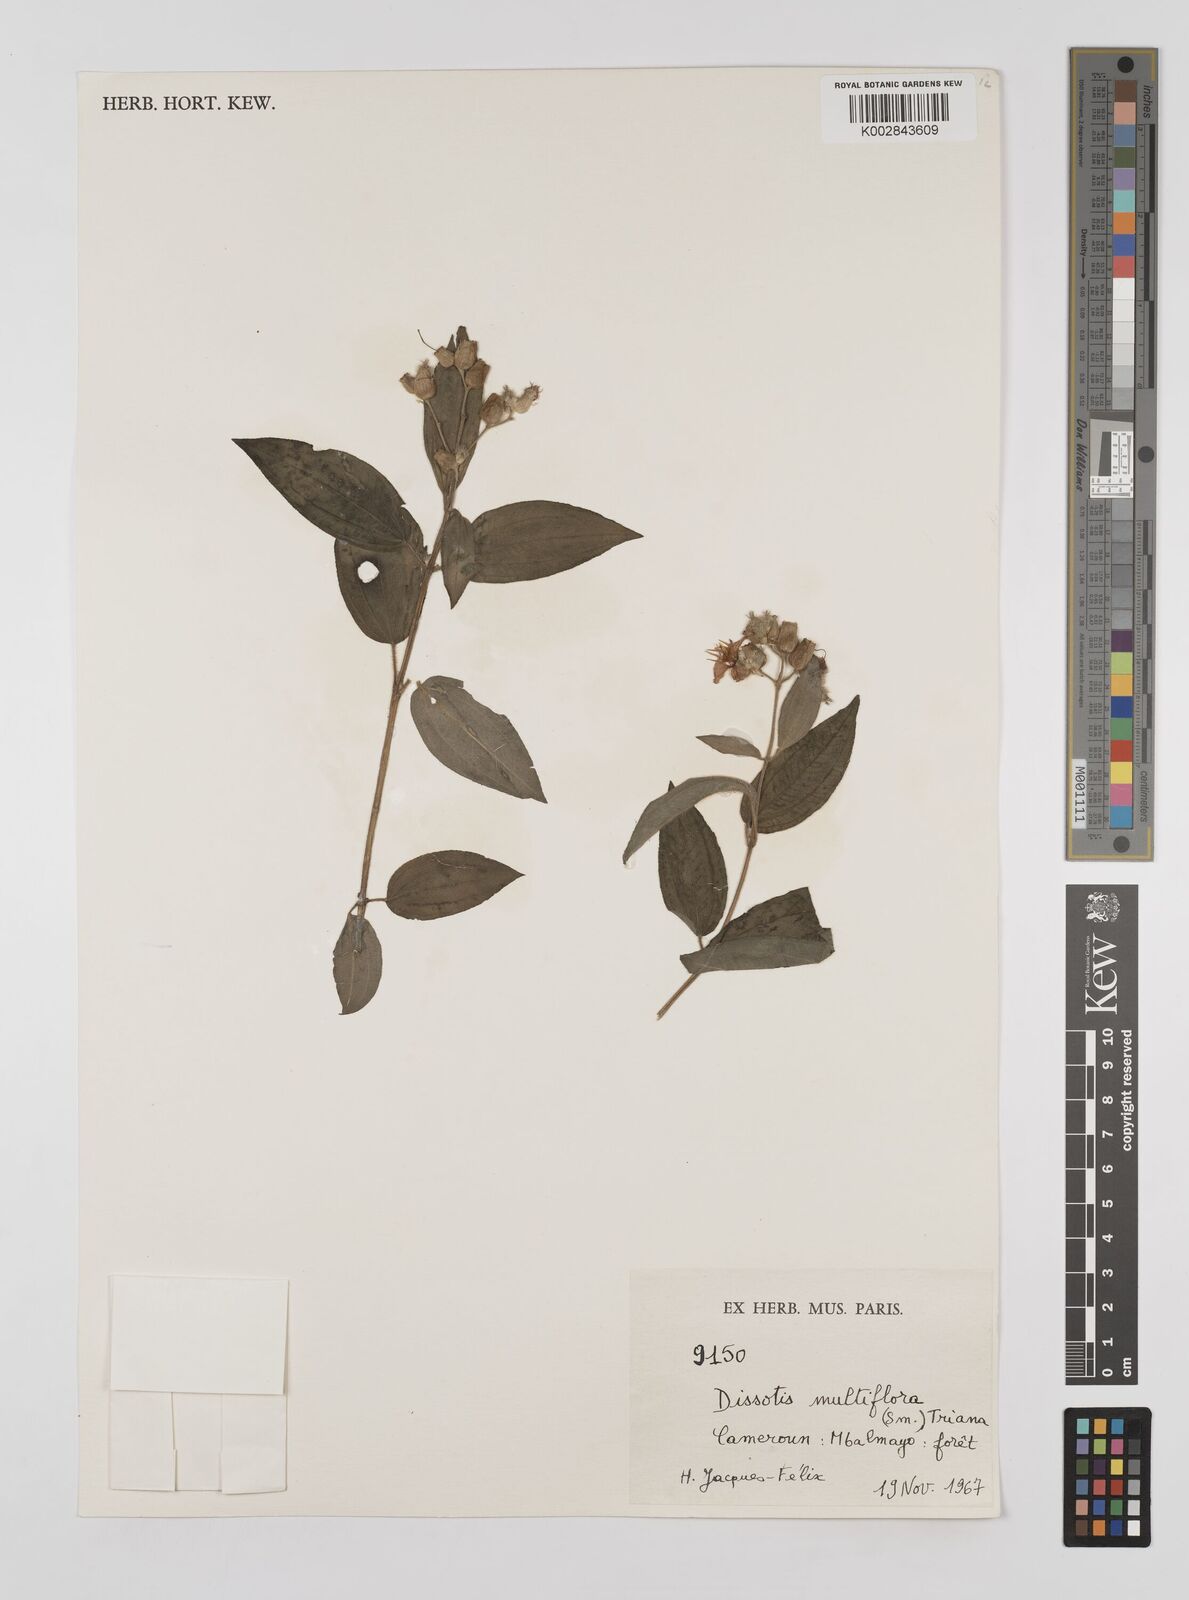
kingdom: Plantae
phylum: Tracheophyta
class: Magnoliopsida
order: Myrtales
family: Melastomataceae
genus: Dupineta
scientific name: Dupineta multiflora
